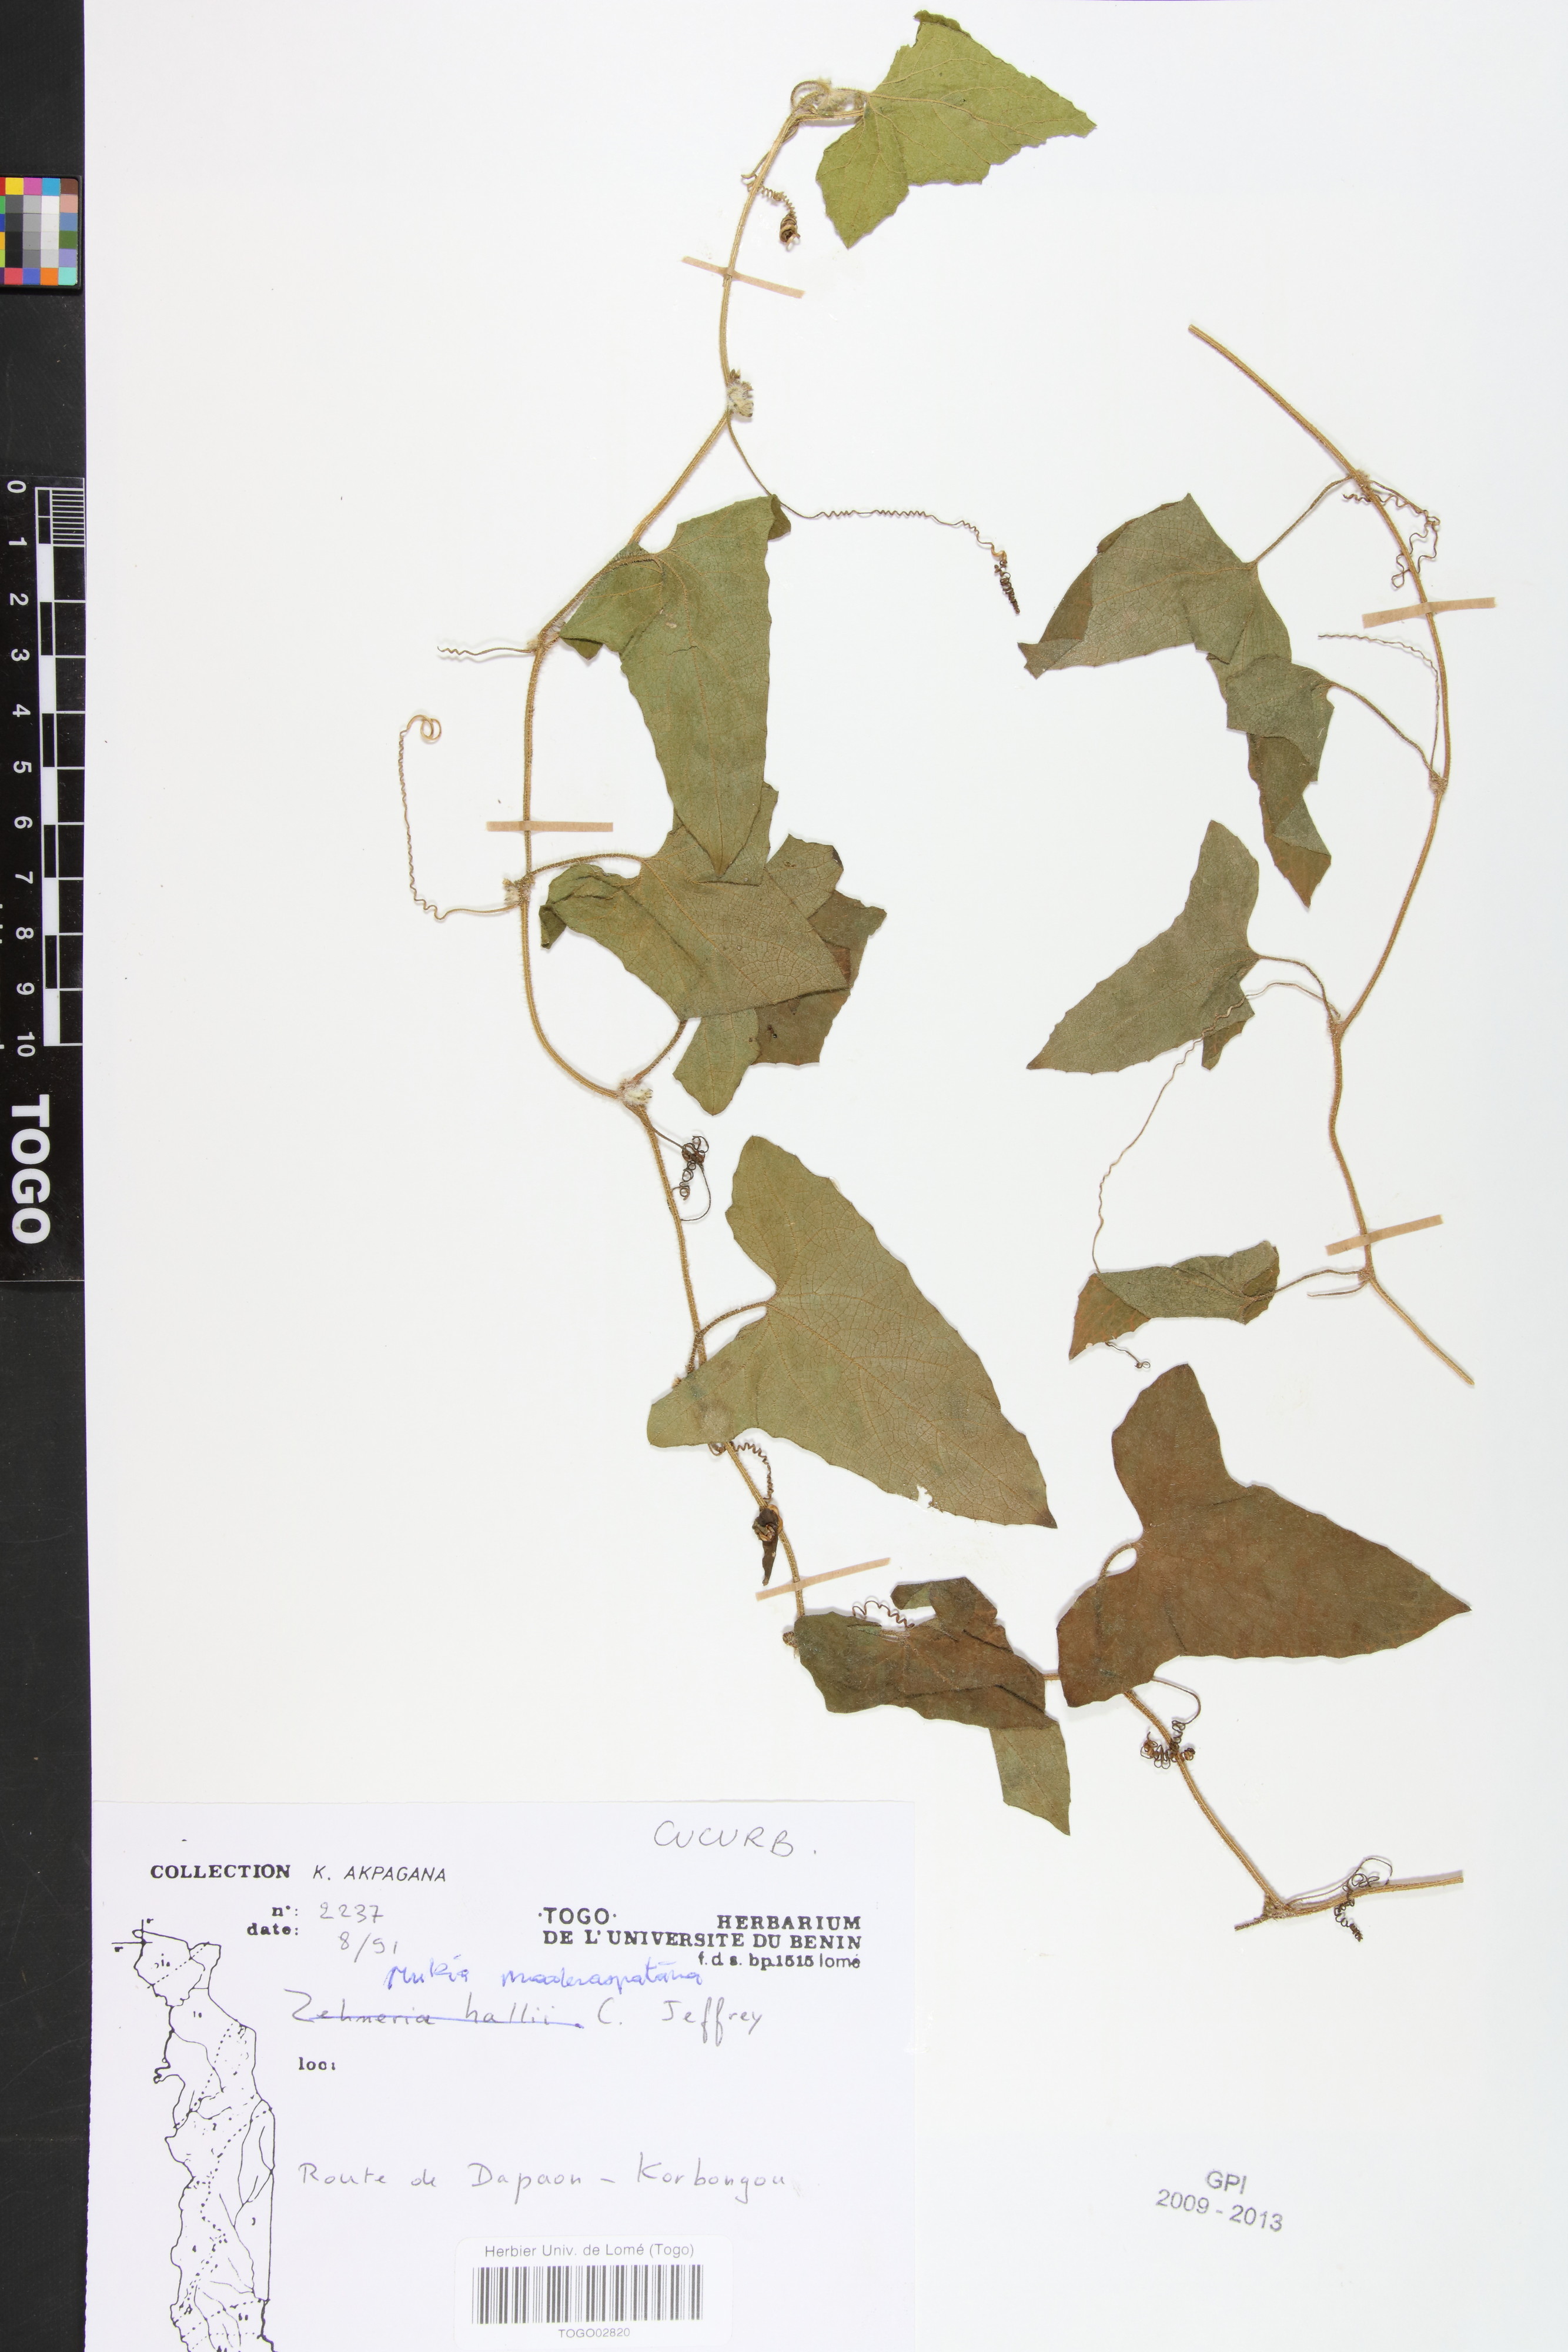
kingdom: Plantae
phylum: Tracheophyta
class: Magnoliopsida
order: Cucurbitales
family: Cucurbitaceae
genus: Cucumis
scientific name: Cucumis maderaspatanus
